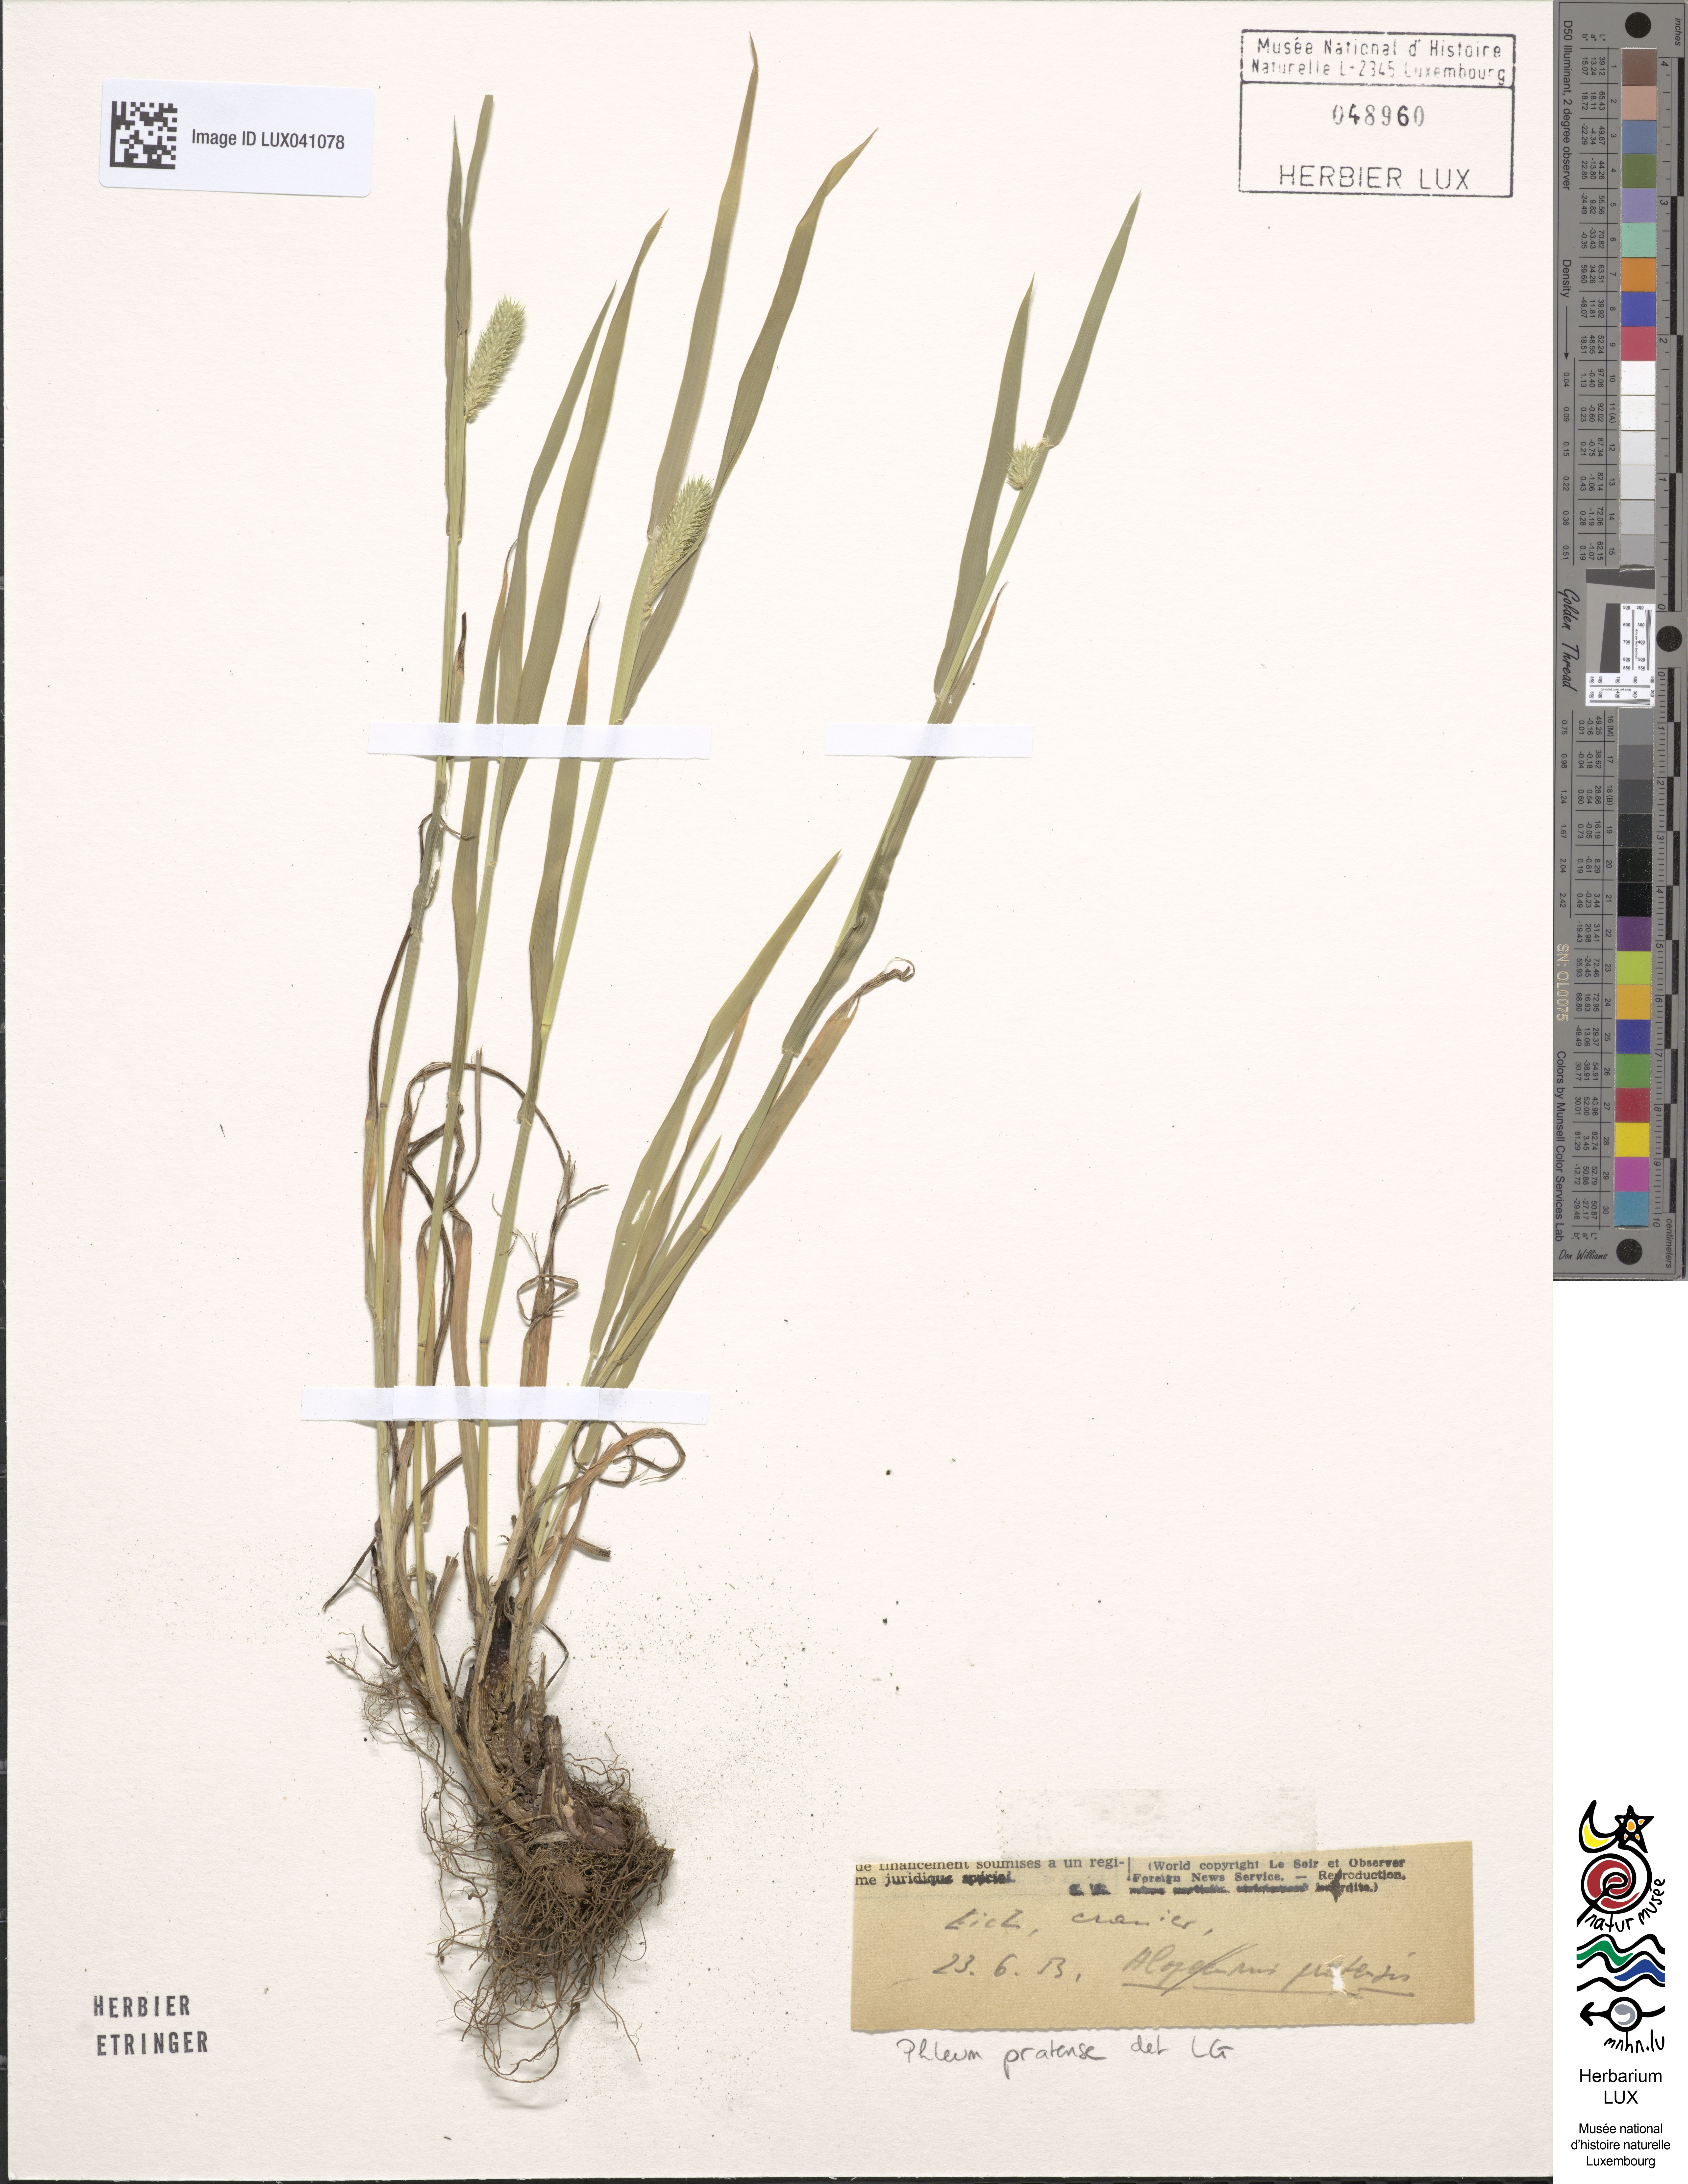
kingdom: Plantae
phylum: Tracheophyta
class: Liliopsida
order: Poales
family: Poaceae
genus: Phleum
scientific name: Phleum pratense
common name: Timothy grass
